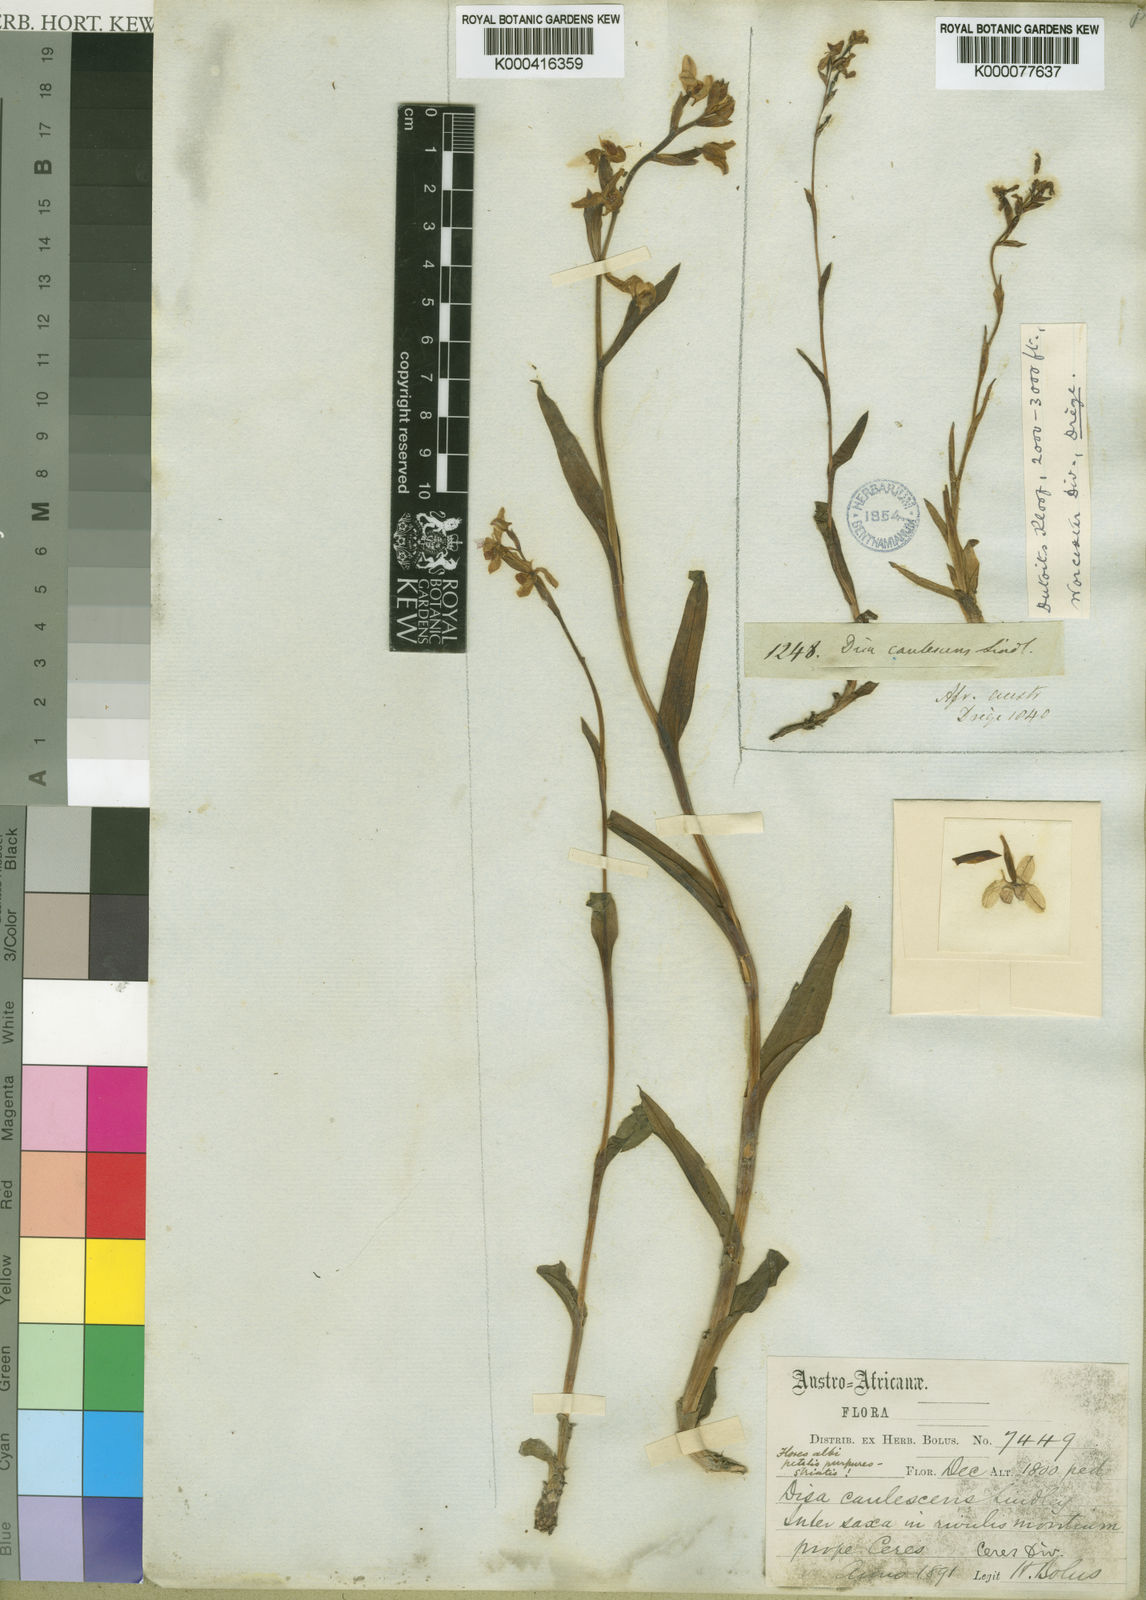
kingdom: Plantae
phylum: Tracheophyta
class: Liliopsida
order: Asparagales
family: Orchidaceae
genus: Disa
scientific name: Disa caulescens
